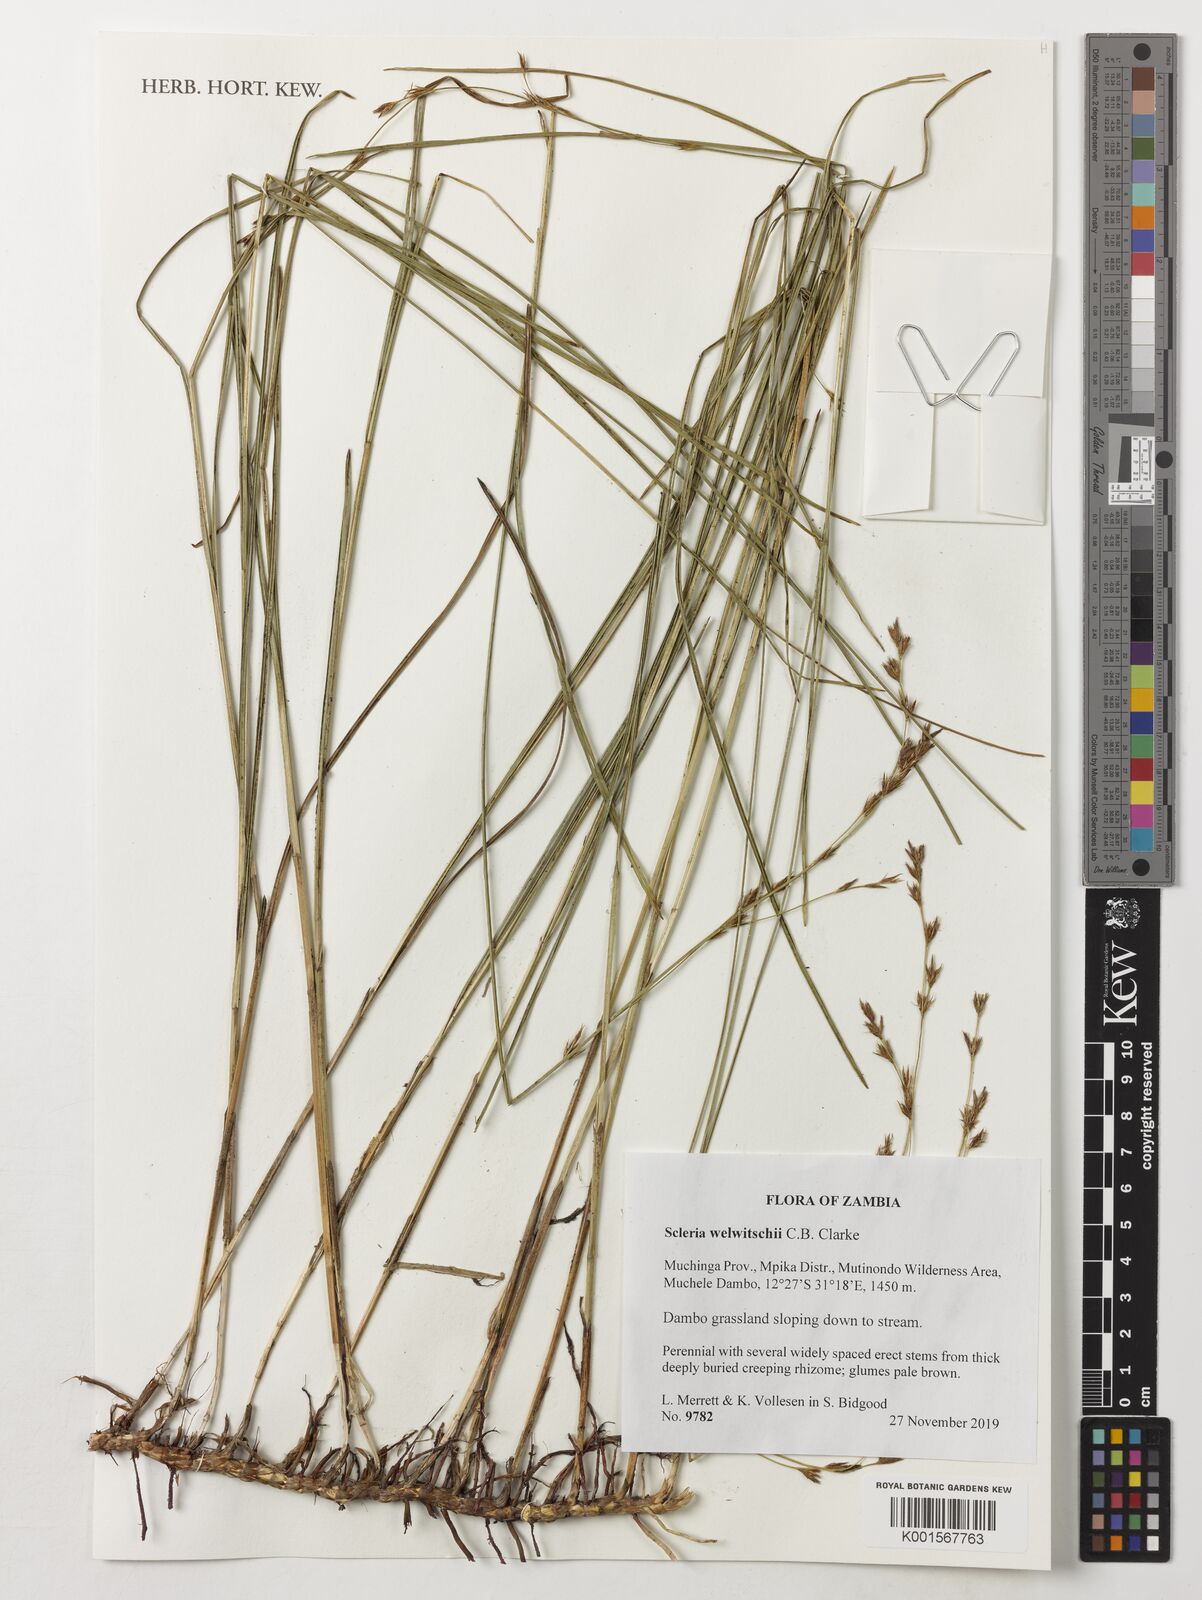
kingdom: Plantae
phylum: Tracheophyta
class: Liliopsida
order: Poales
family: Cyperaceae
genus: Scleria
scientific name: Scleria welwitschii
